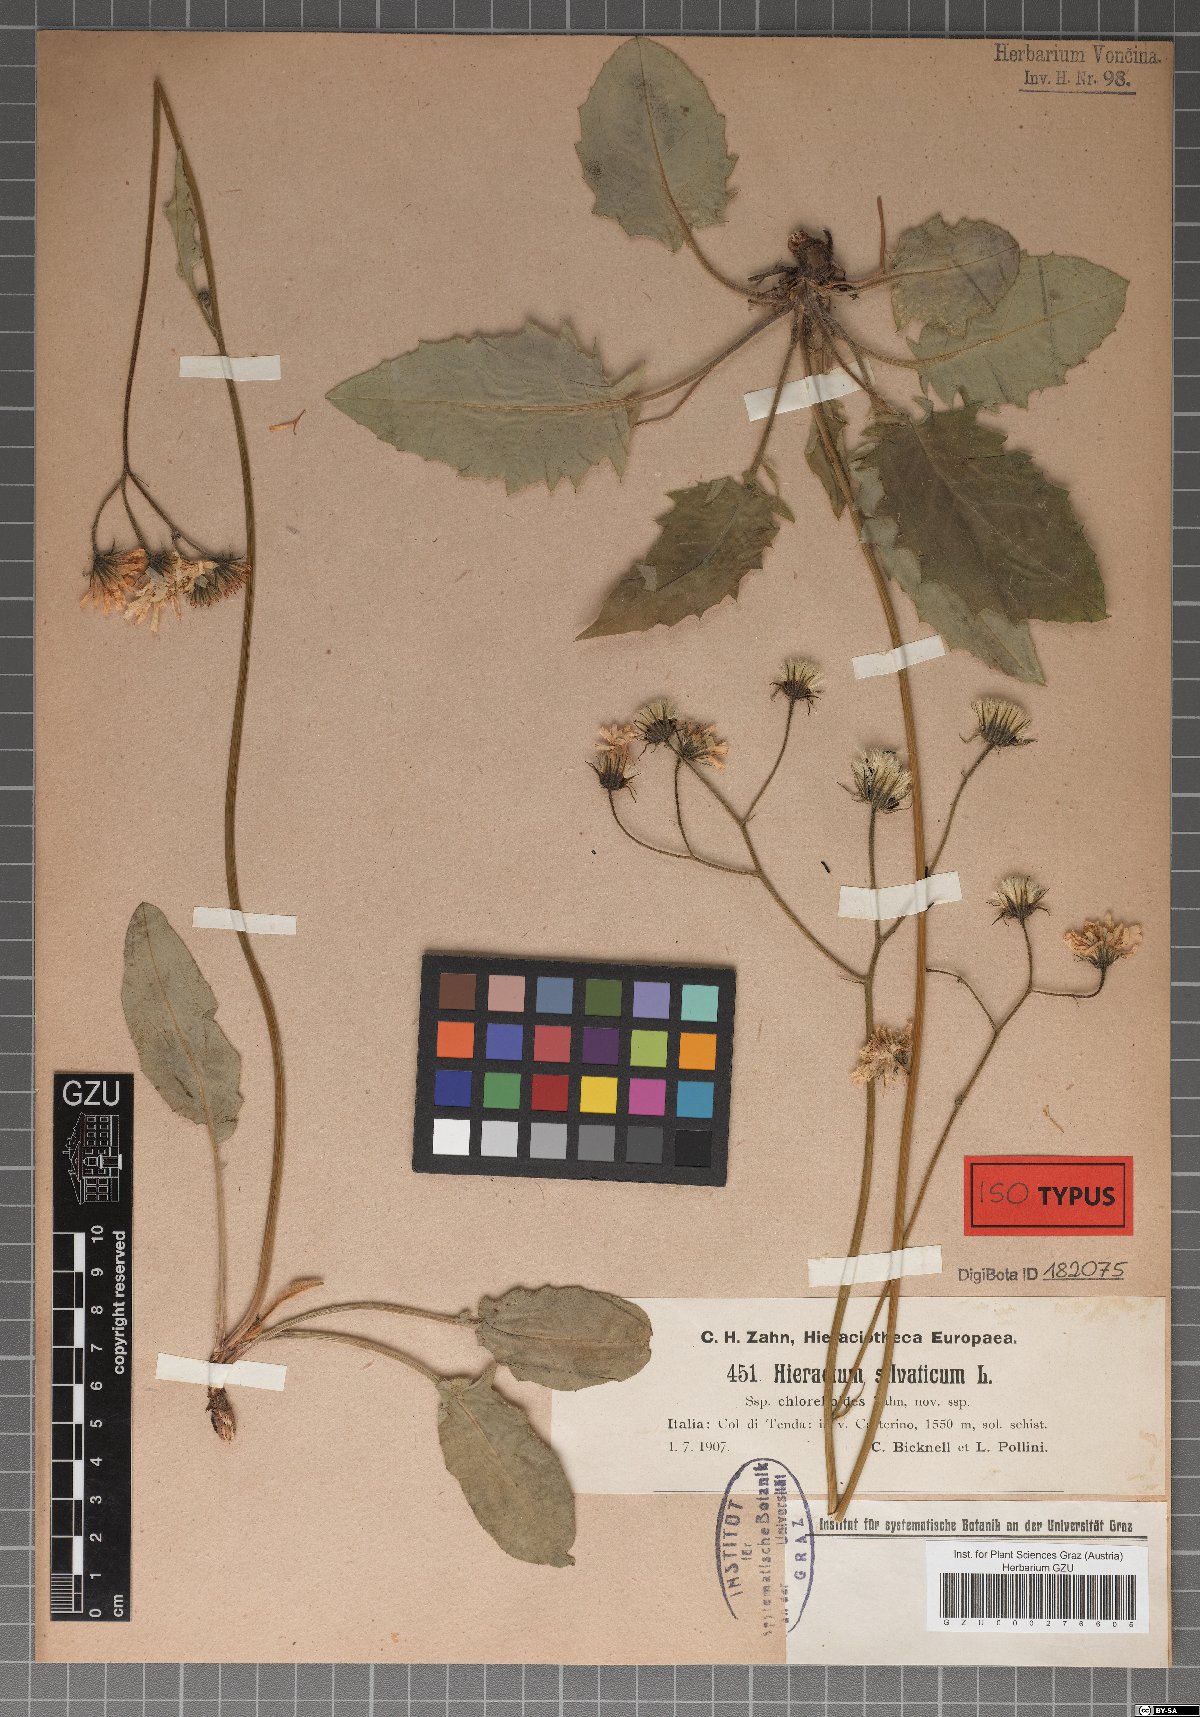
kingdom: Plantae
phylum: Tracheophyta
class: Magnoliopsida
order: Asterales
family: Asteraceae
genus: Hieracium
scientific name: Hieracium chlorelloides
